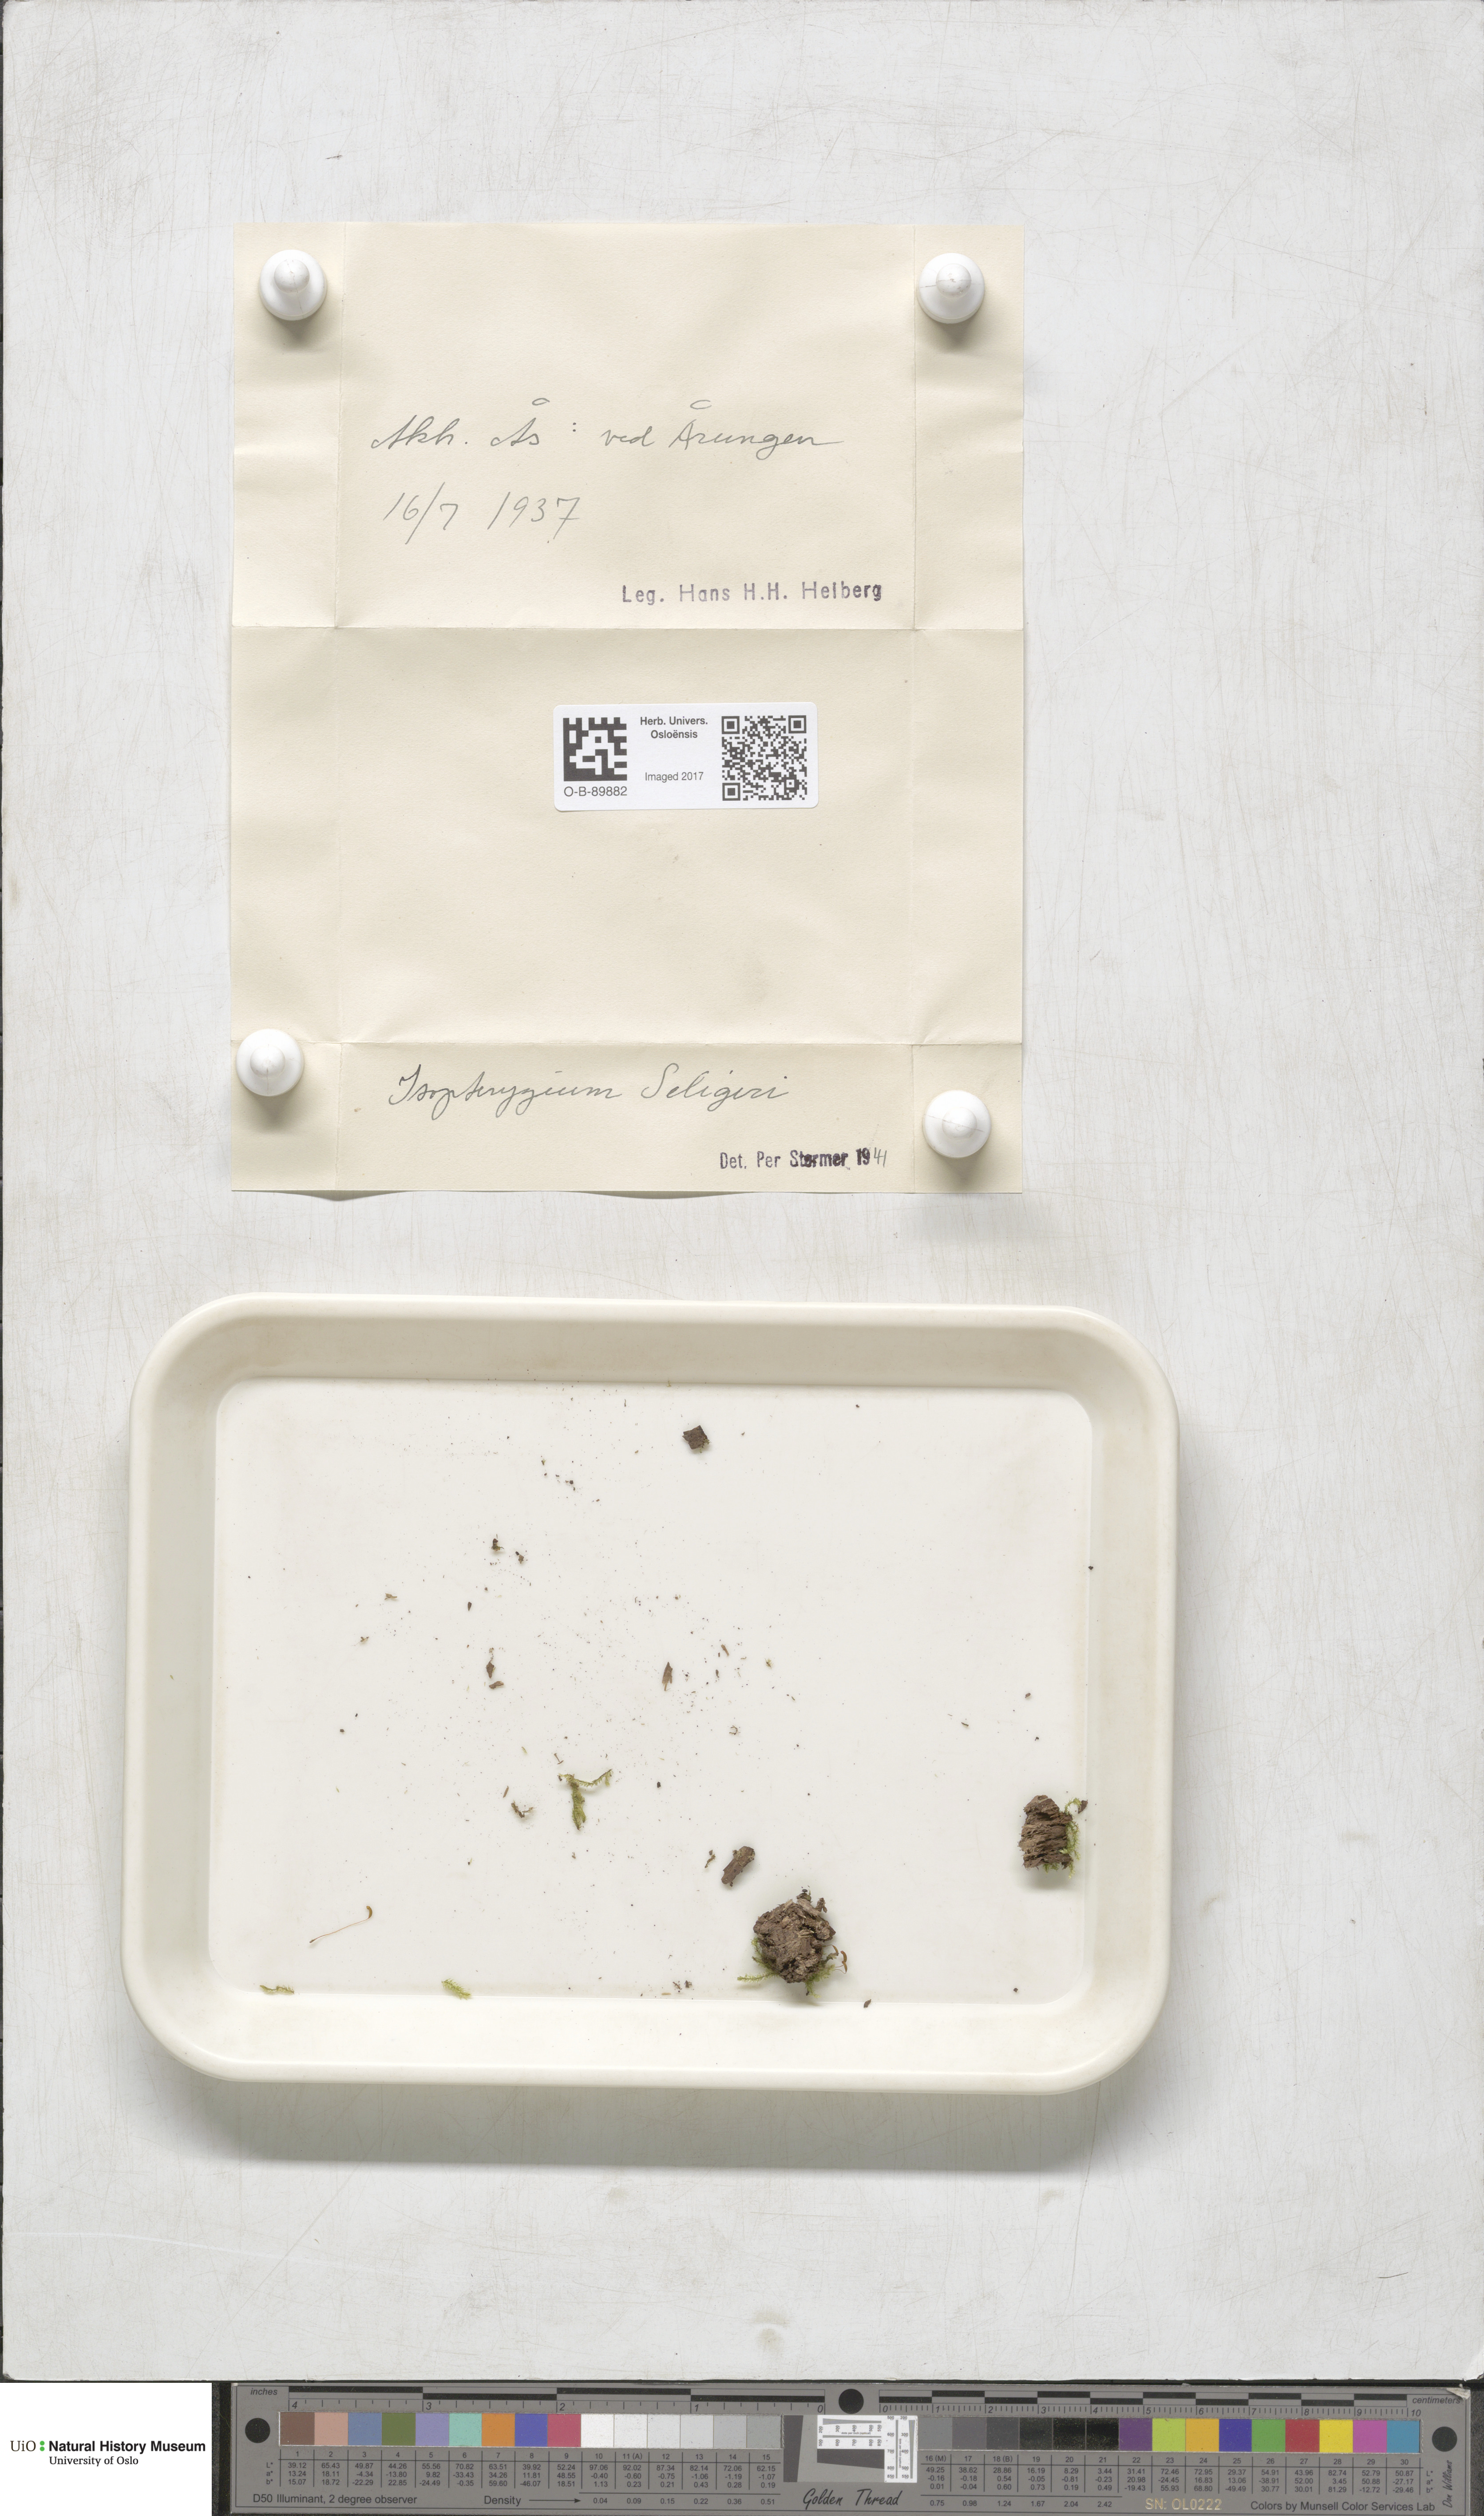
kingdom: Plantae
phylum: Bryophyta
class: Bryopsida
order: Hypnales
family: Plagiotheciaceae
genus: Herzogiella
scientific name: Herzogiella seligeri
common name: Silesian feather-moss
